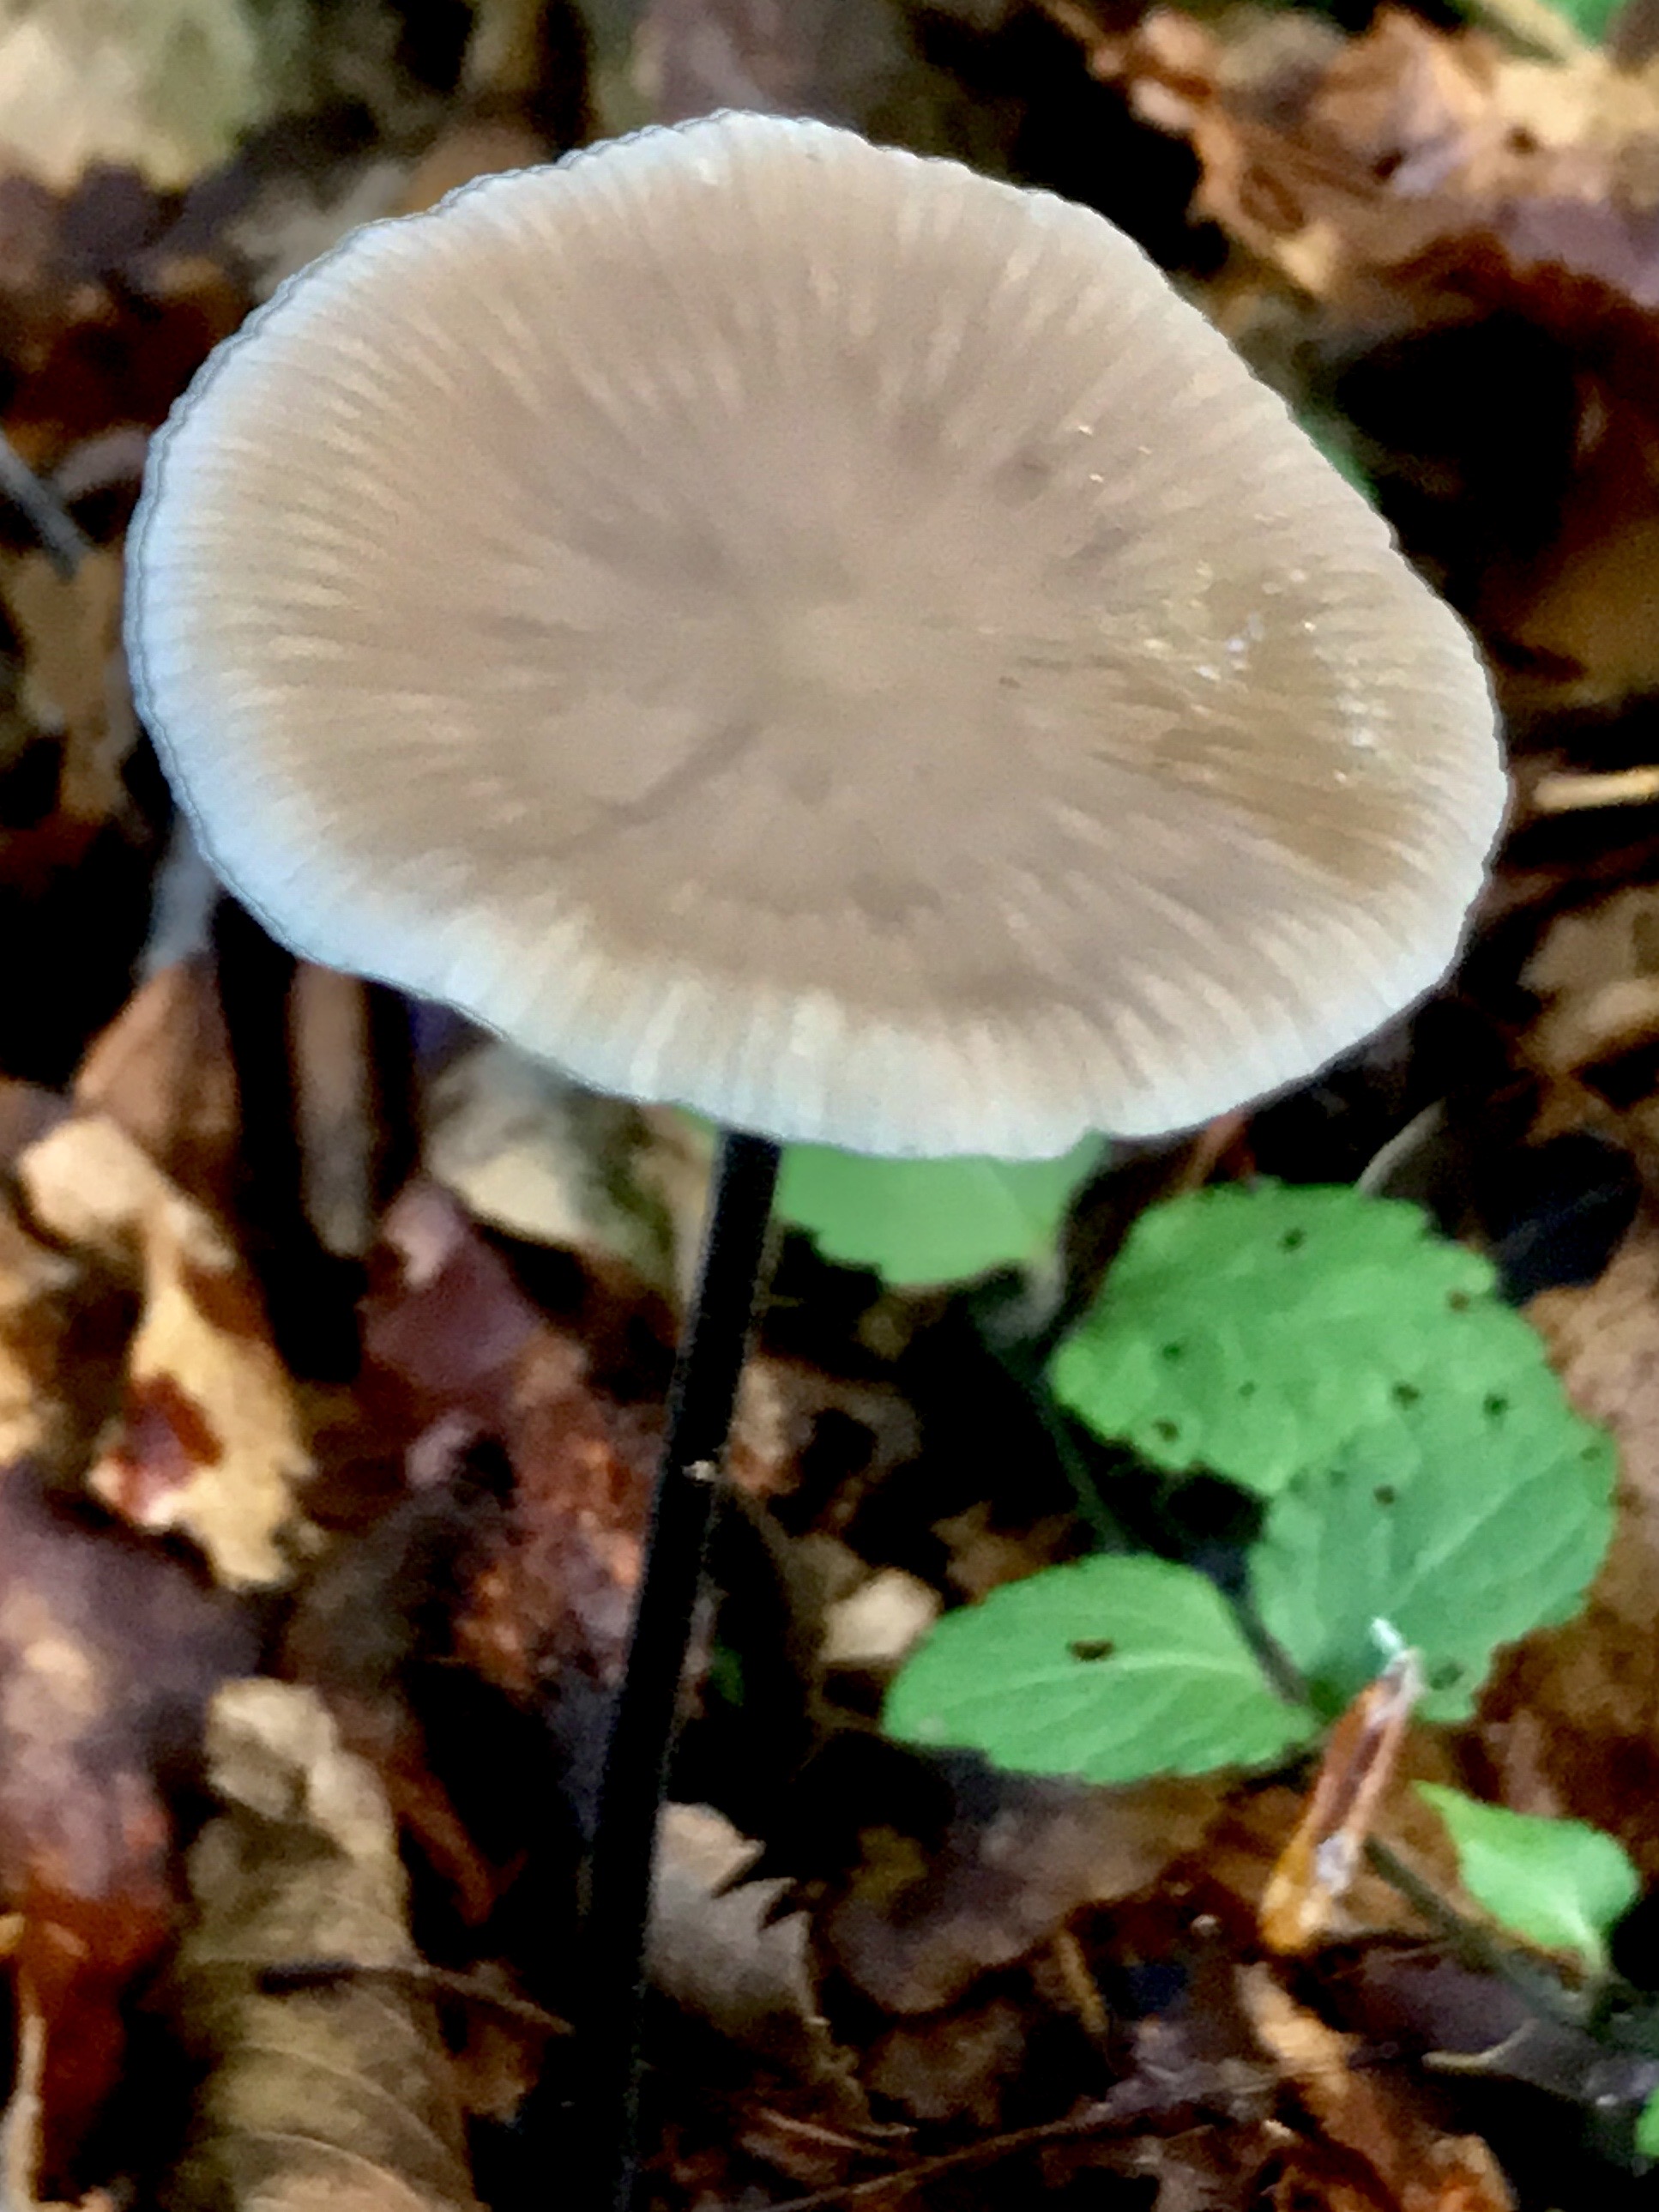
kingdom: Fungi
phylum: Basidiomycota
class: Agaricomycetes
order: Agaricales
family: Omphalotaceae
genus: Mycetinis
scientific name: Mycetinis alliaceus
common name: stor løghat
